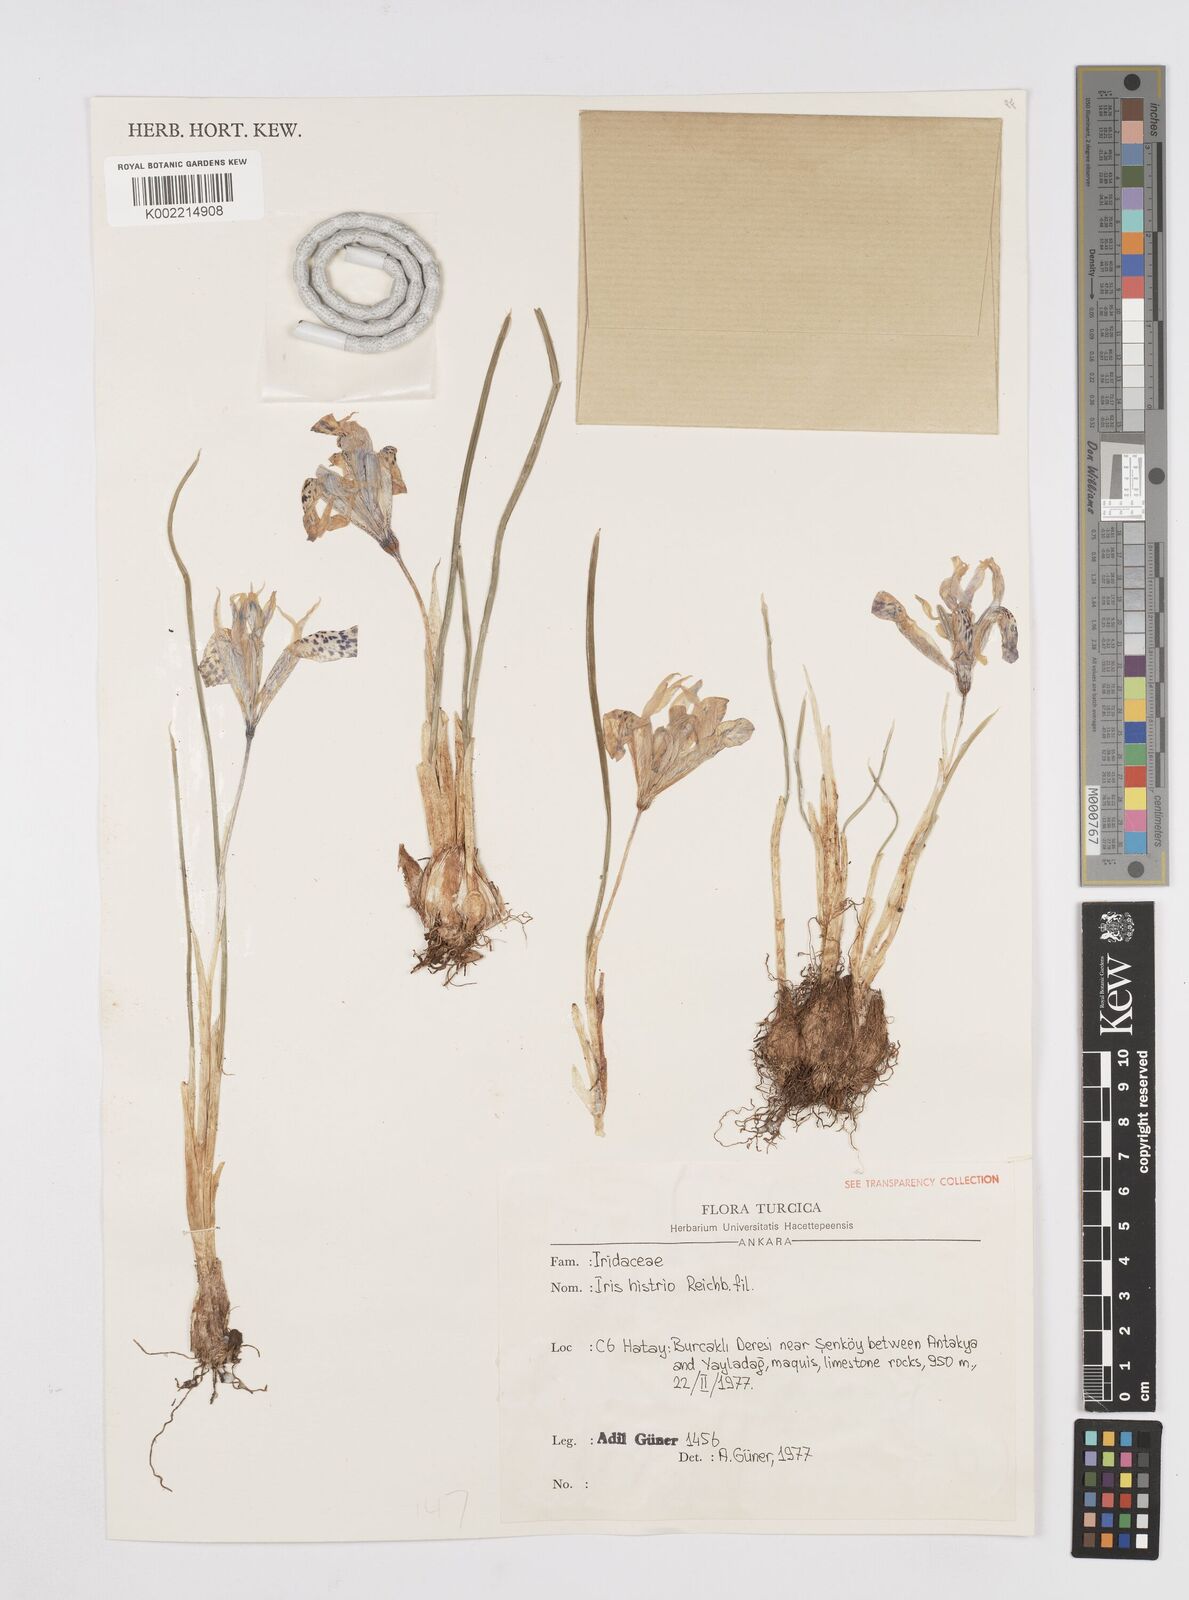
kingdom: Plantae
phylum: Tracheophyta
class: Liliopsida
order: Asparagales
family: Iridaceae
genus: Iris
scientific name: Iris histrio
